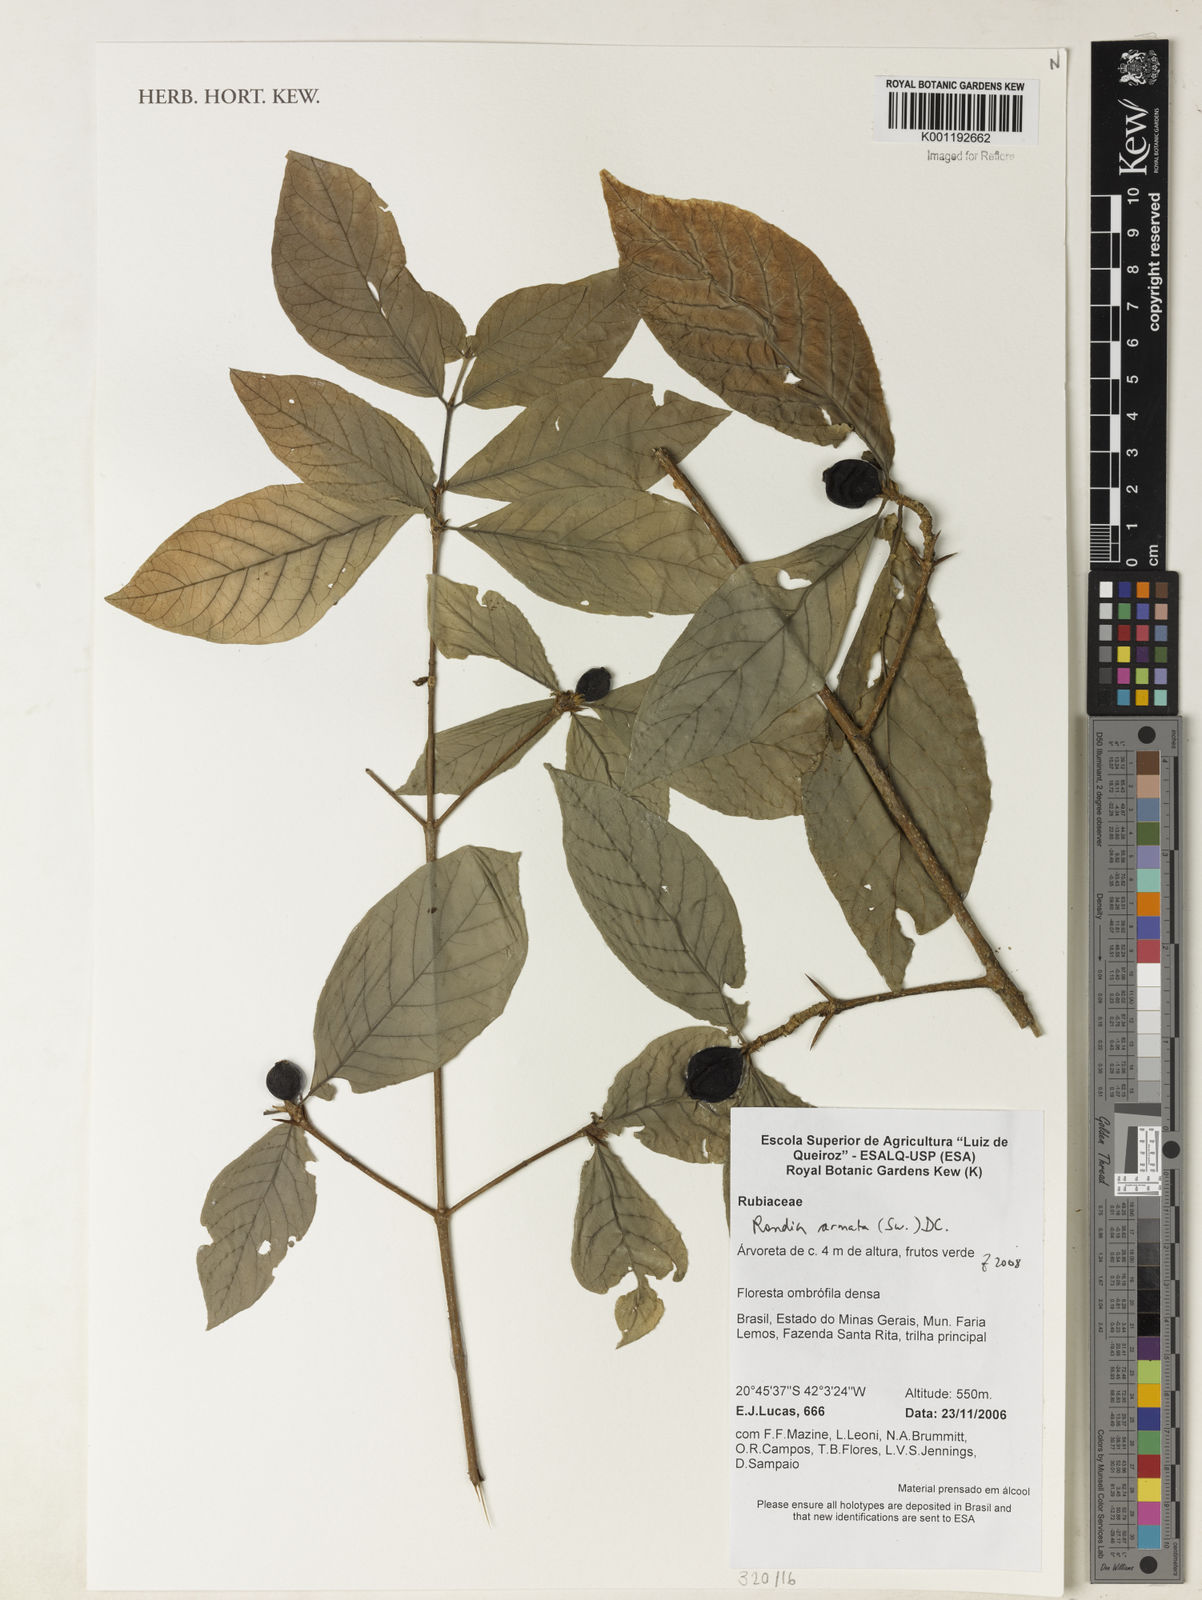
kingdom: Plantae
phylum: Tracheophyta
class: Magnoliopsida
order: Gentianales
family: Rubiaceae
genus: Randia
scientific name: Randia armata
